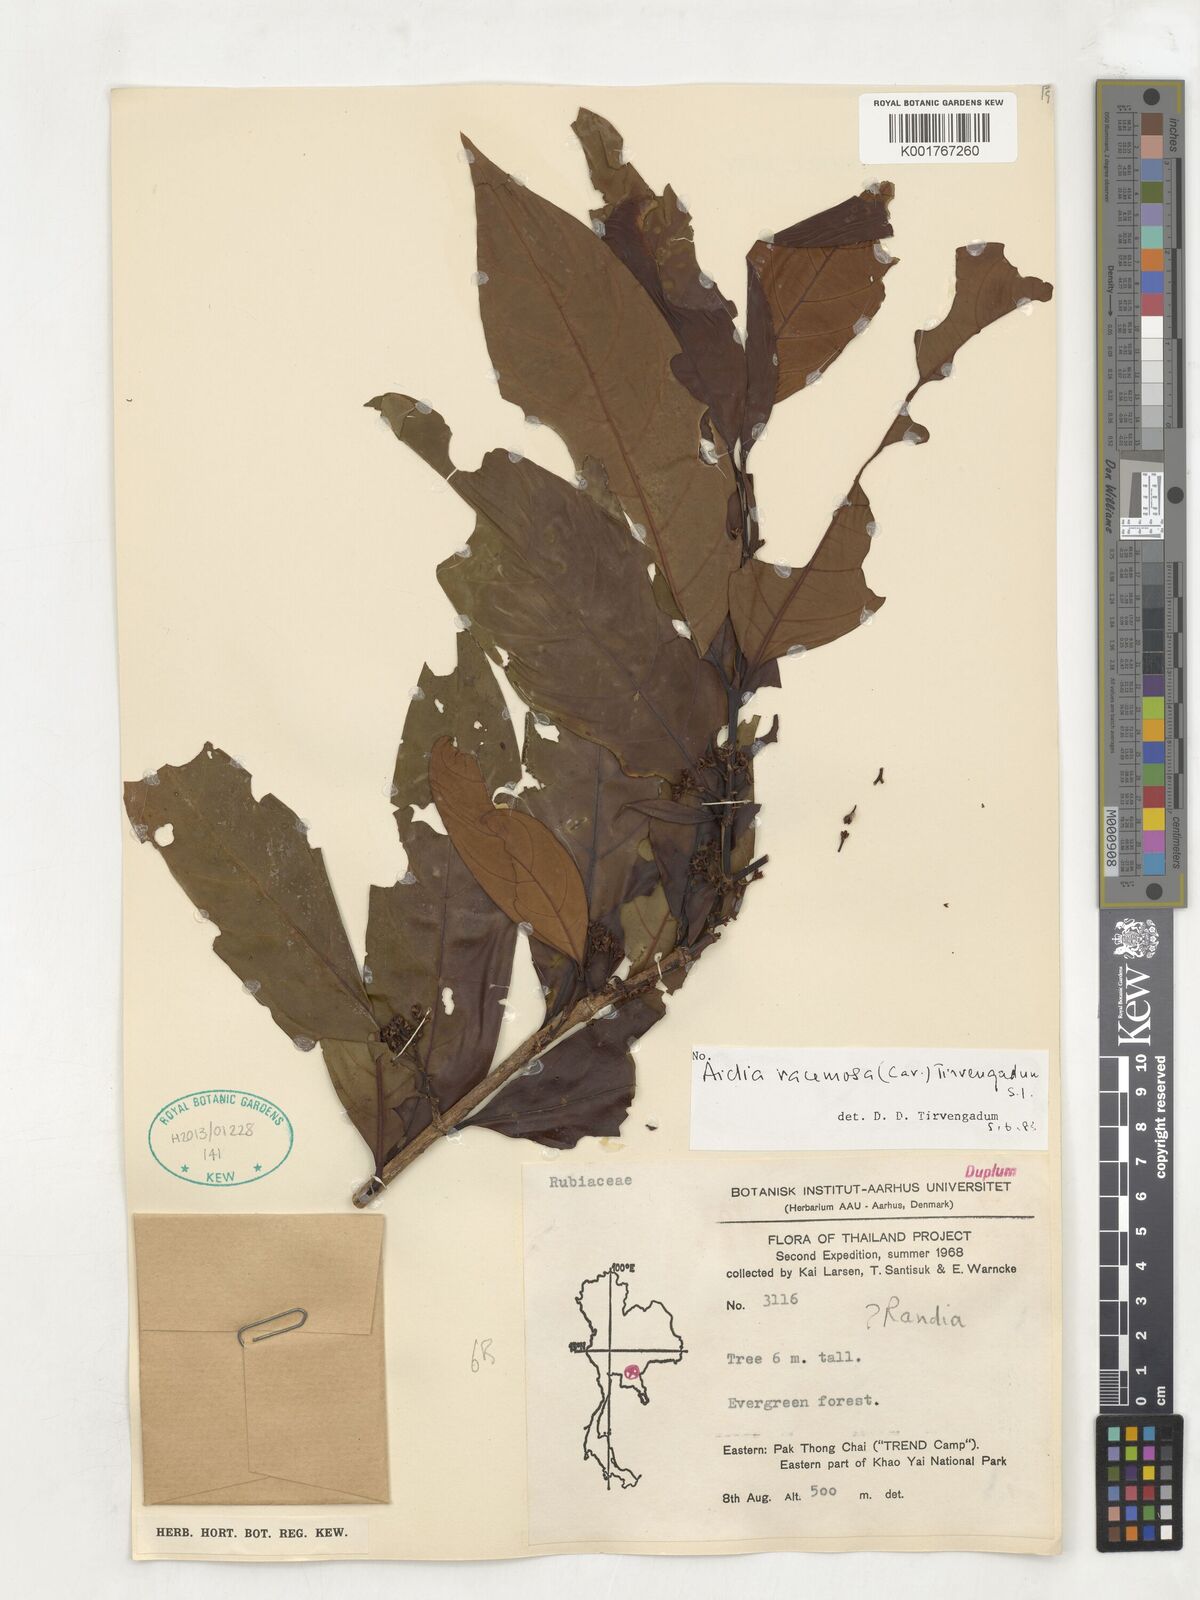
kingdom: Plantae
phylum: Tracheophyta
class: Magnoliopsida
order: Gentianales
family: Rubiaceae
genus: Aidia
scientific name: Aidia racemosa
